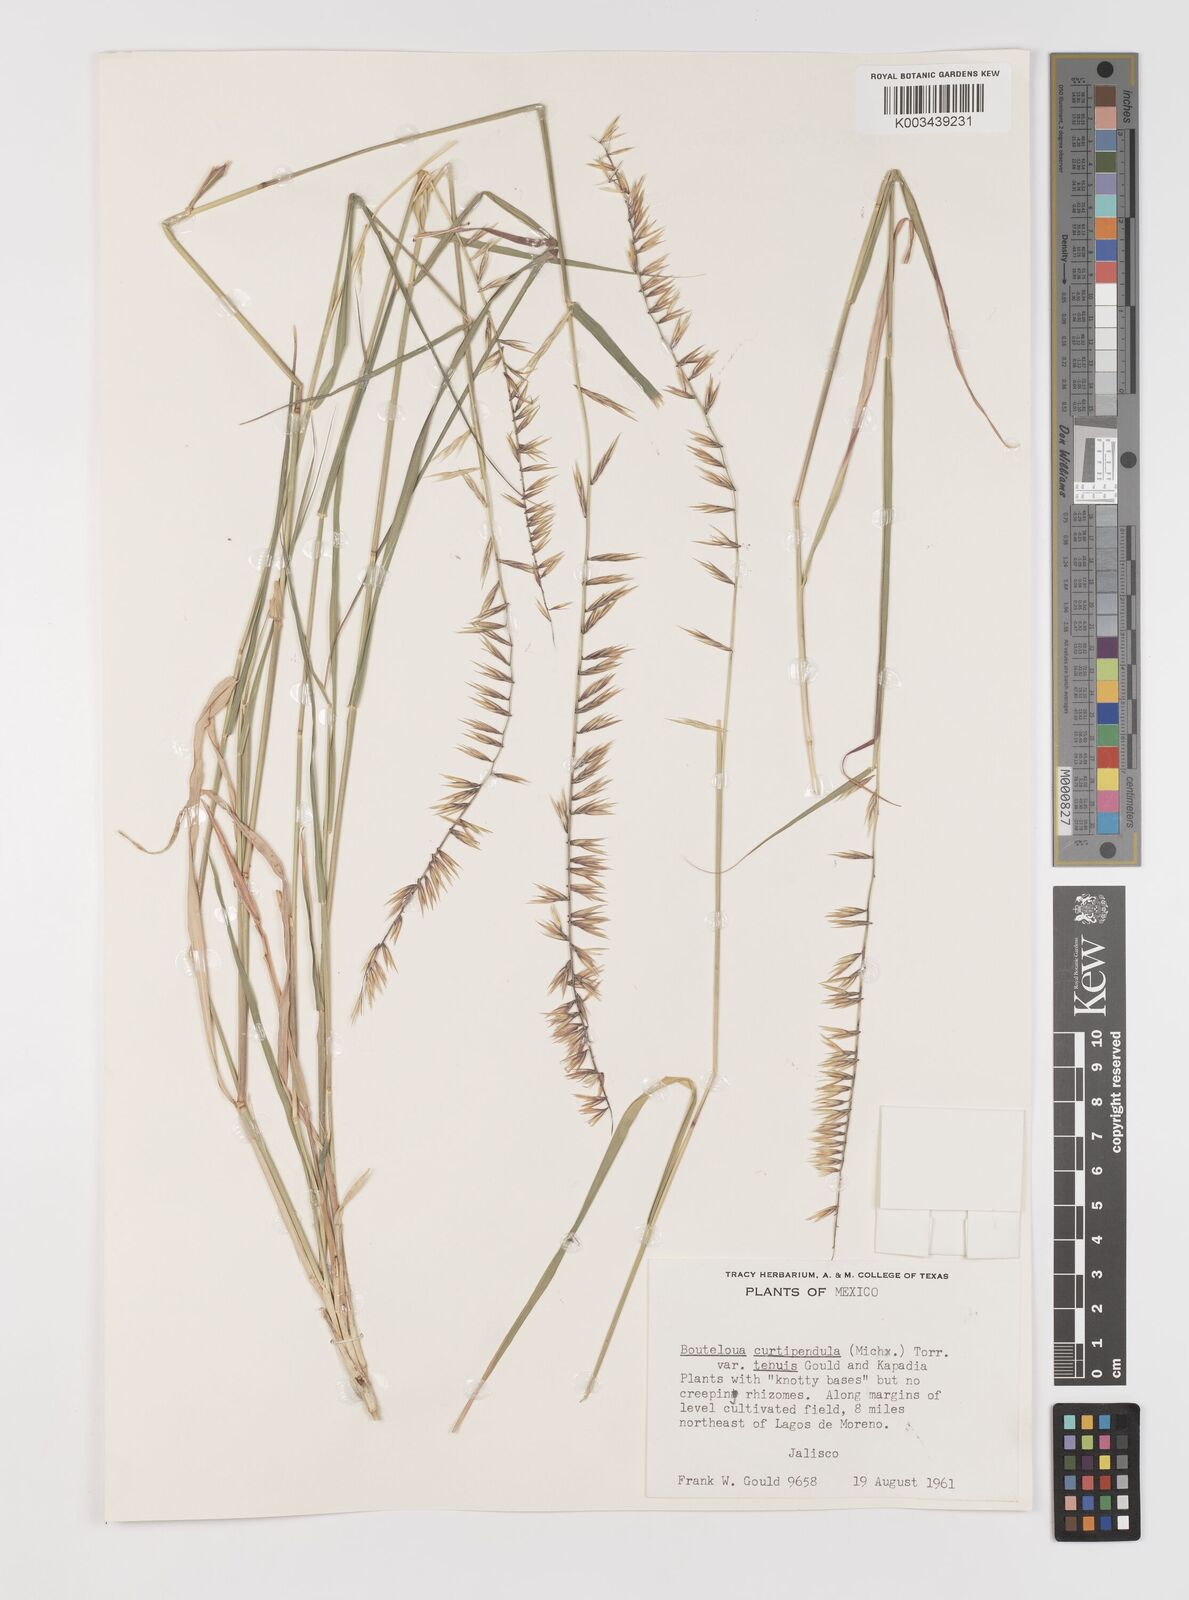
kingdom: Plantae
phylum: Tracheophyta
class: Liliopsida
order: Poales
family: Poaceae
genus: Bouteloua
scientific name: Bouteloua curtipendula
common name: Side-oats grama
